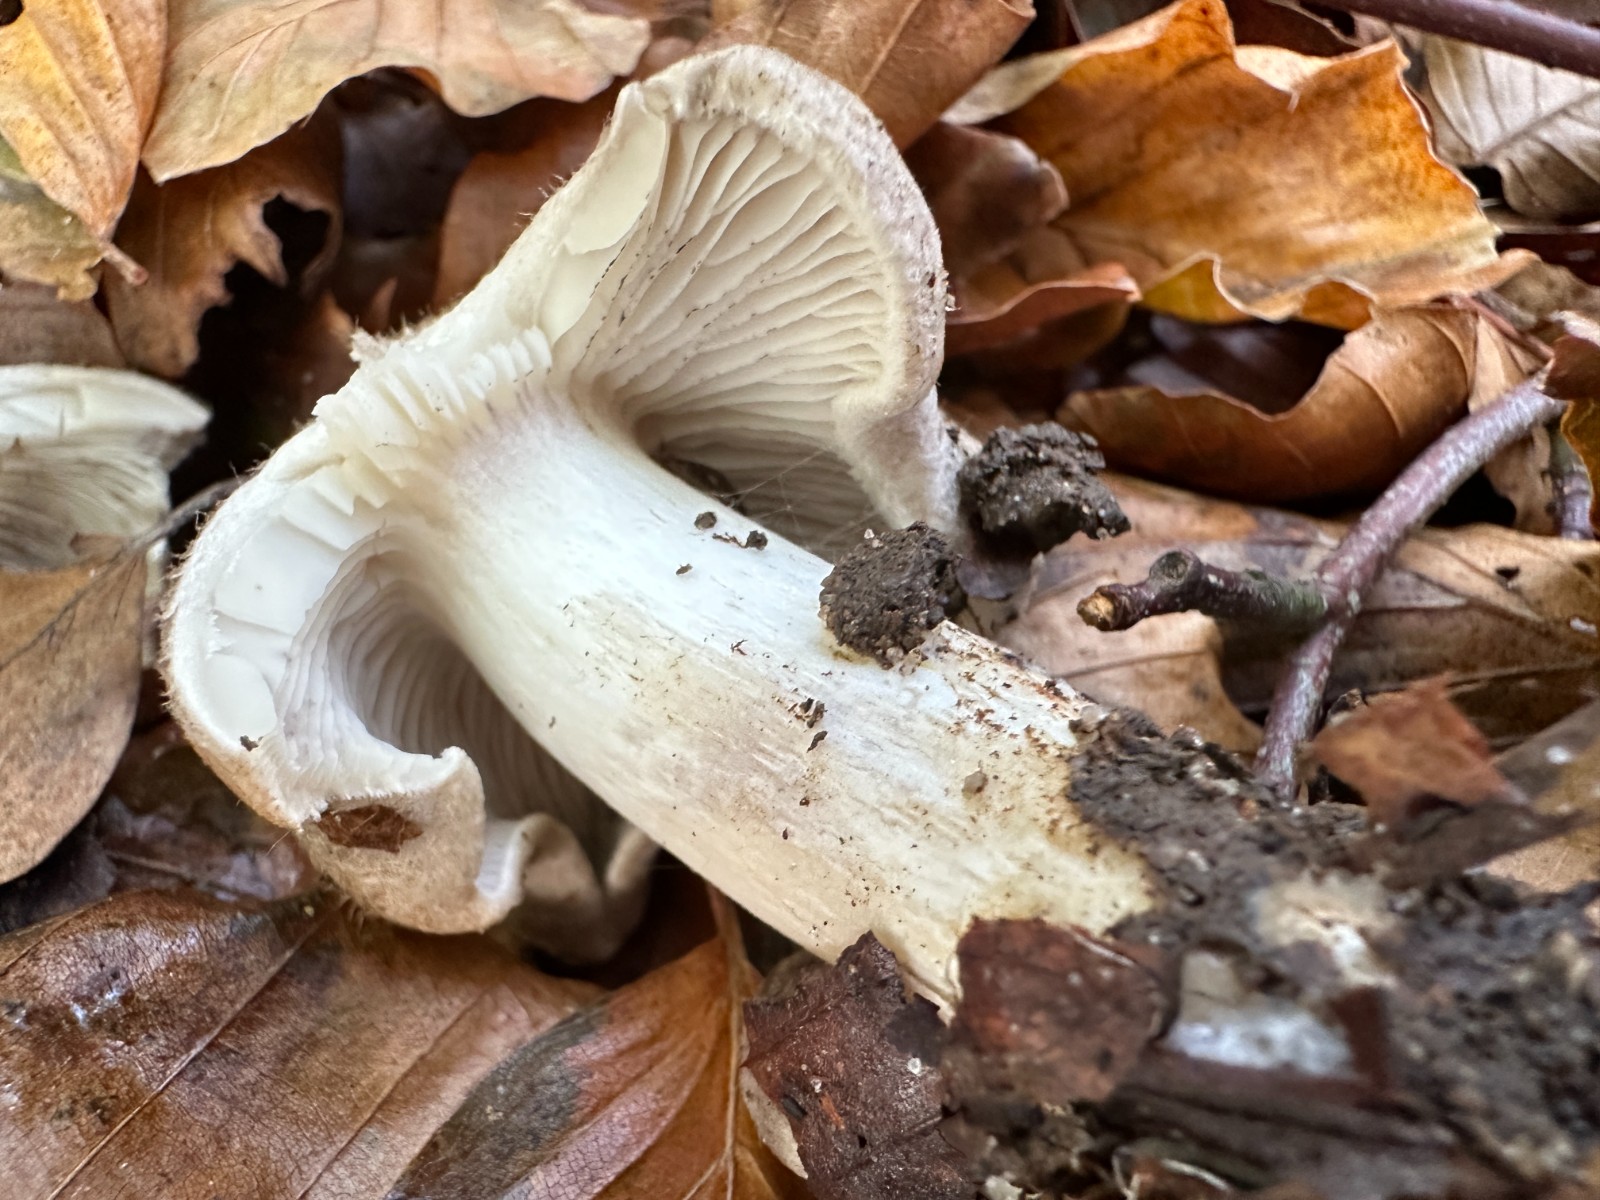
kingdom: Fungi
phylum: Basidiomycota
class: Agaricomycetes
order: Agaricales
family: Tricholomataceae
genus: Tricholoma
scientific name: Tricholoma sciodes
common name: stribet ridderhat
